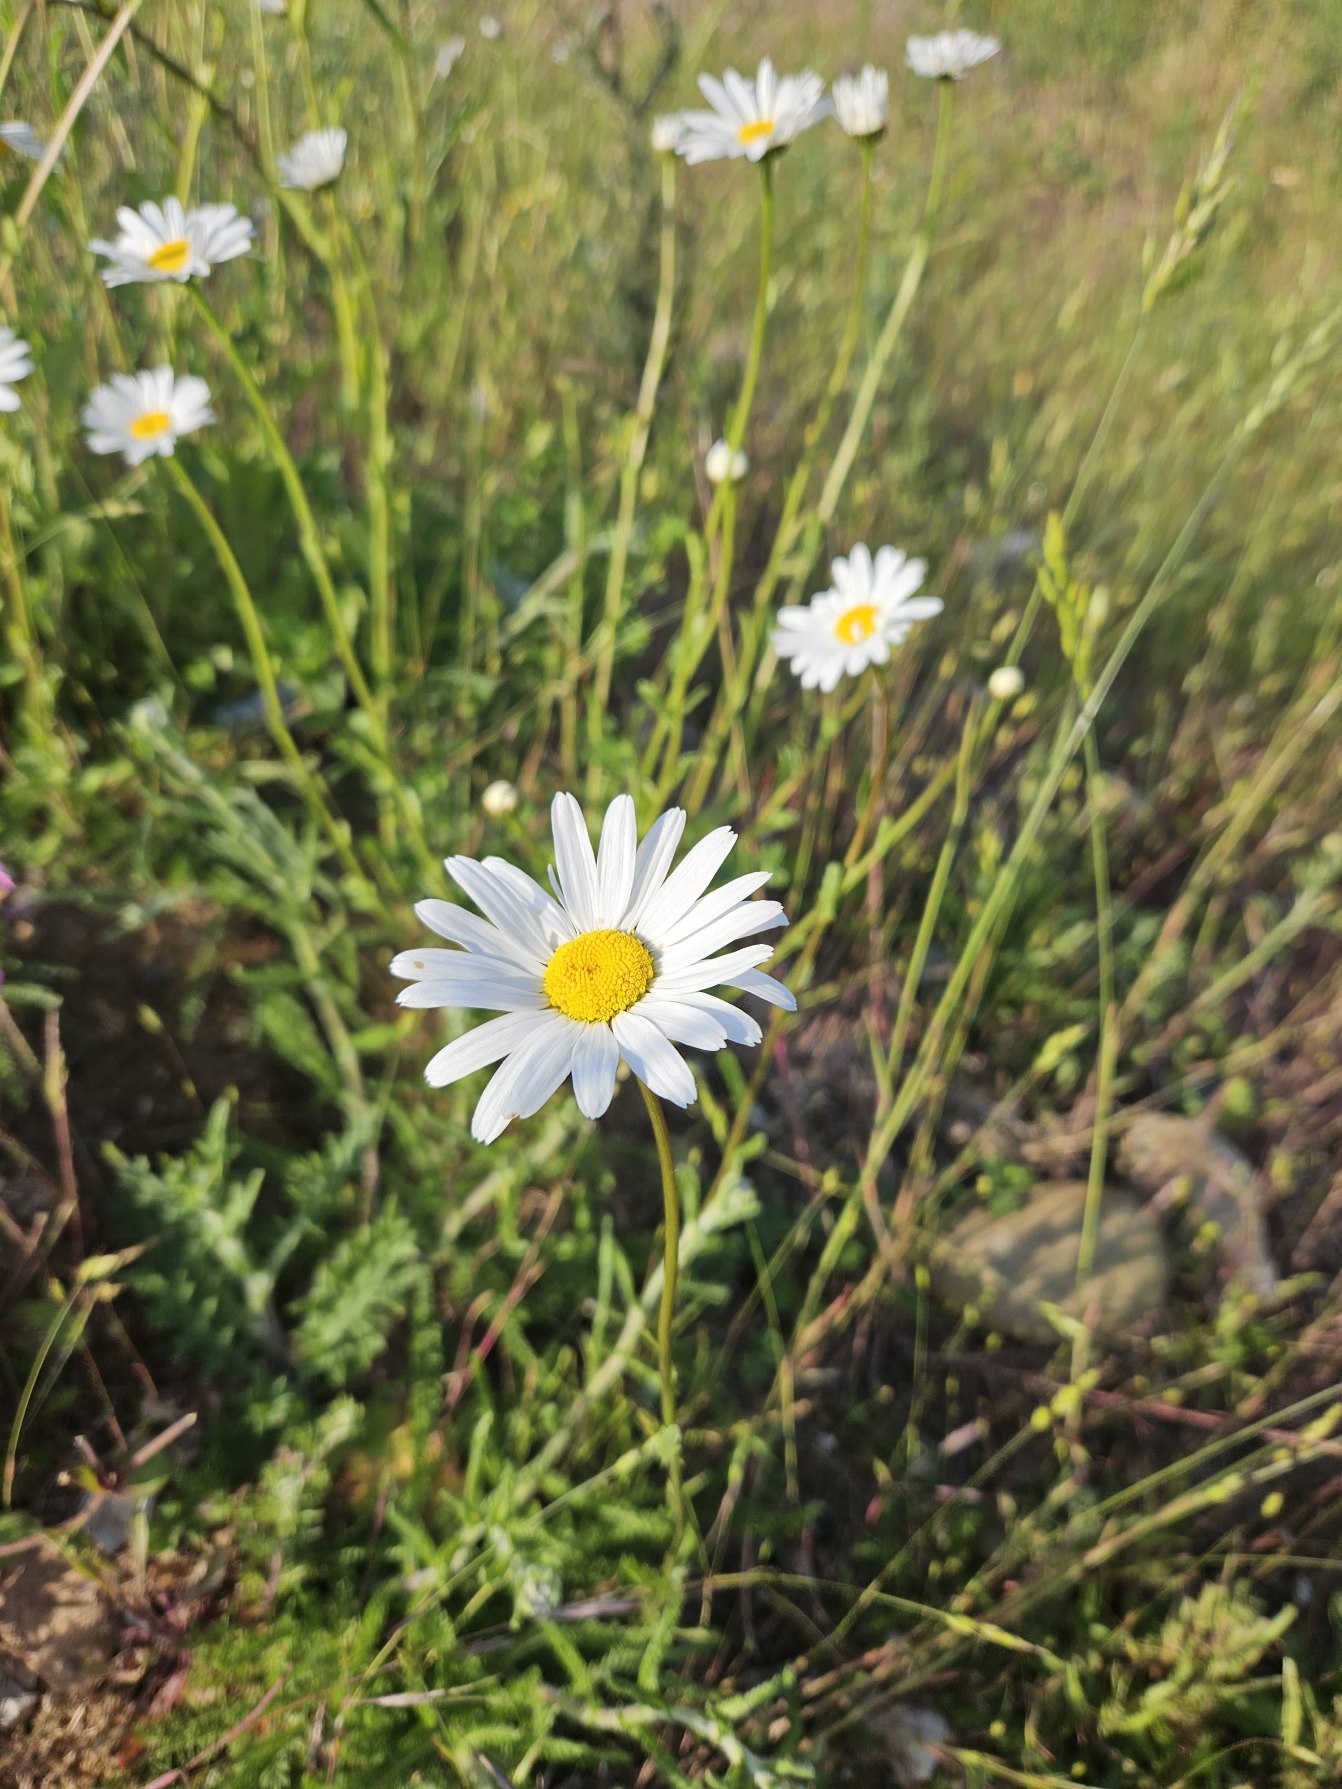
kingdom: Plantae
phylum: Tracheophyta
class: Magnoliopsida
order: Asterales
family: Asteraceae
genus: Leucanthemum
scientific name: Leucanthemum vulgare
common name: Hvid okseøje
